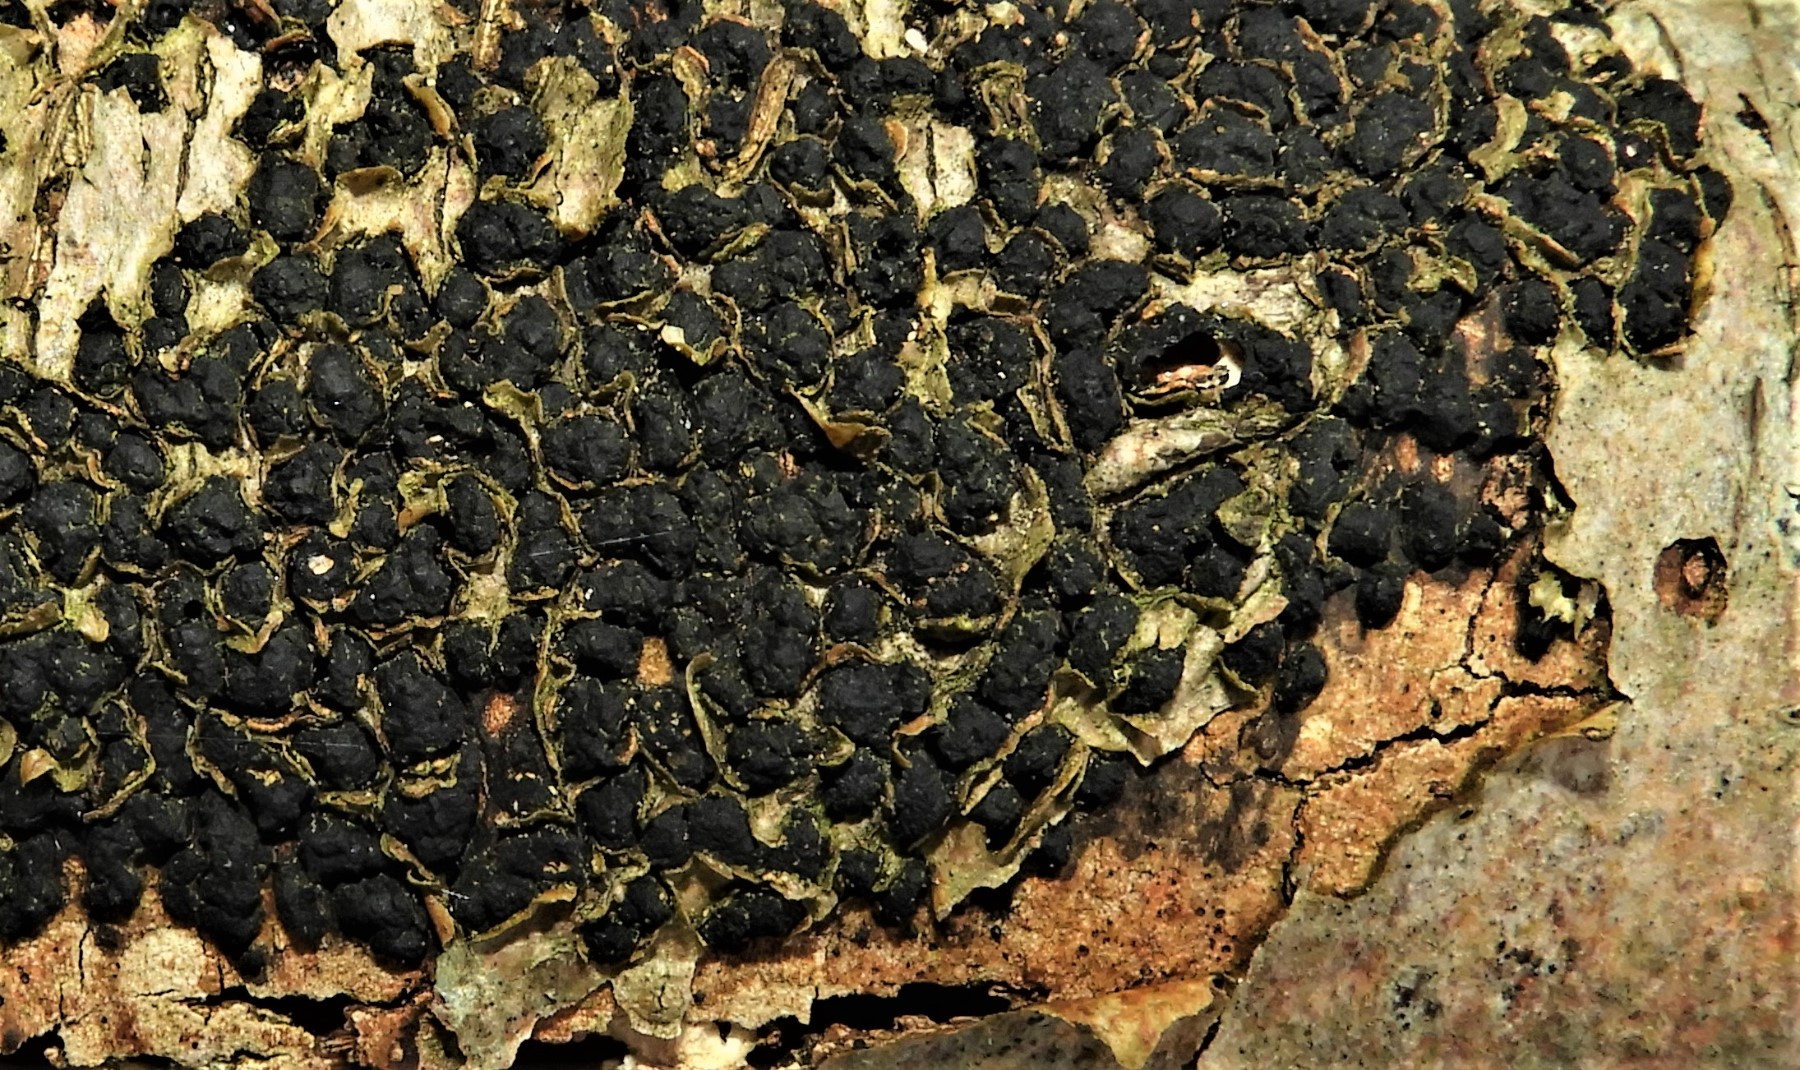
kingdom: Fungi
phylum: Ascomycota
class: Sordariomycetes
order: Sordariales
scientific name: Sordariales
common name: kernesvampordenen
